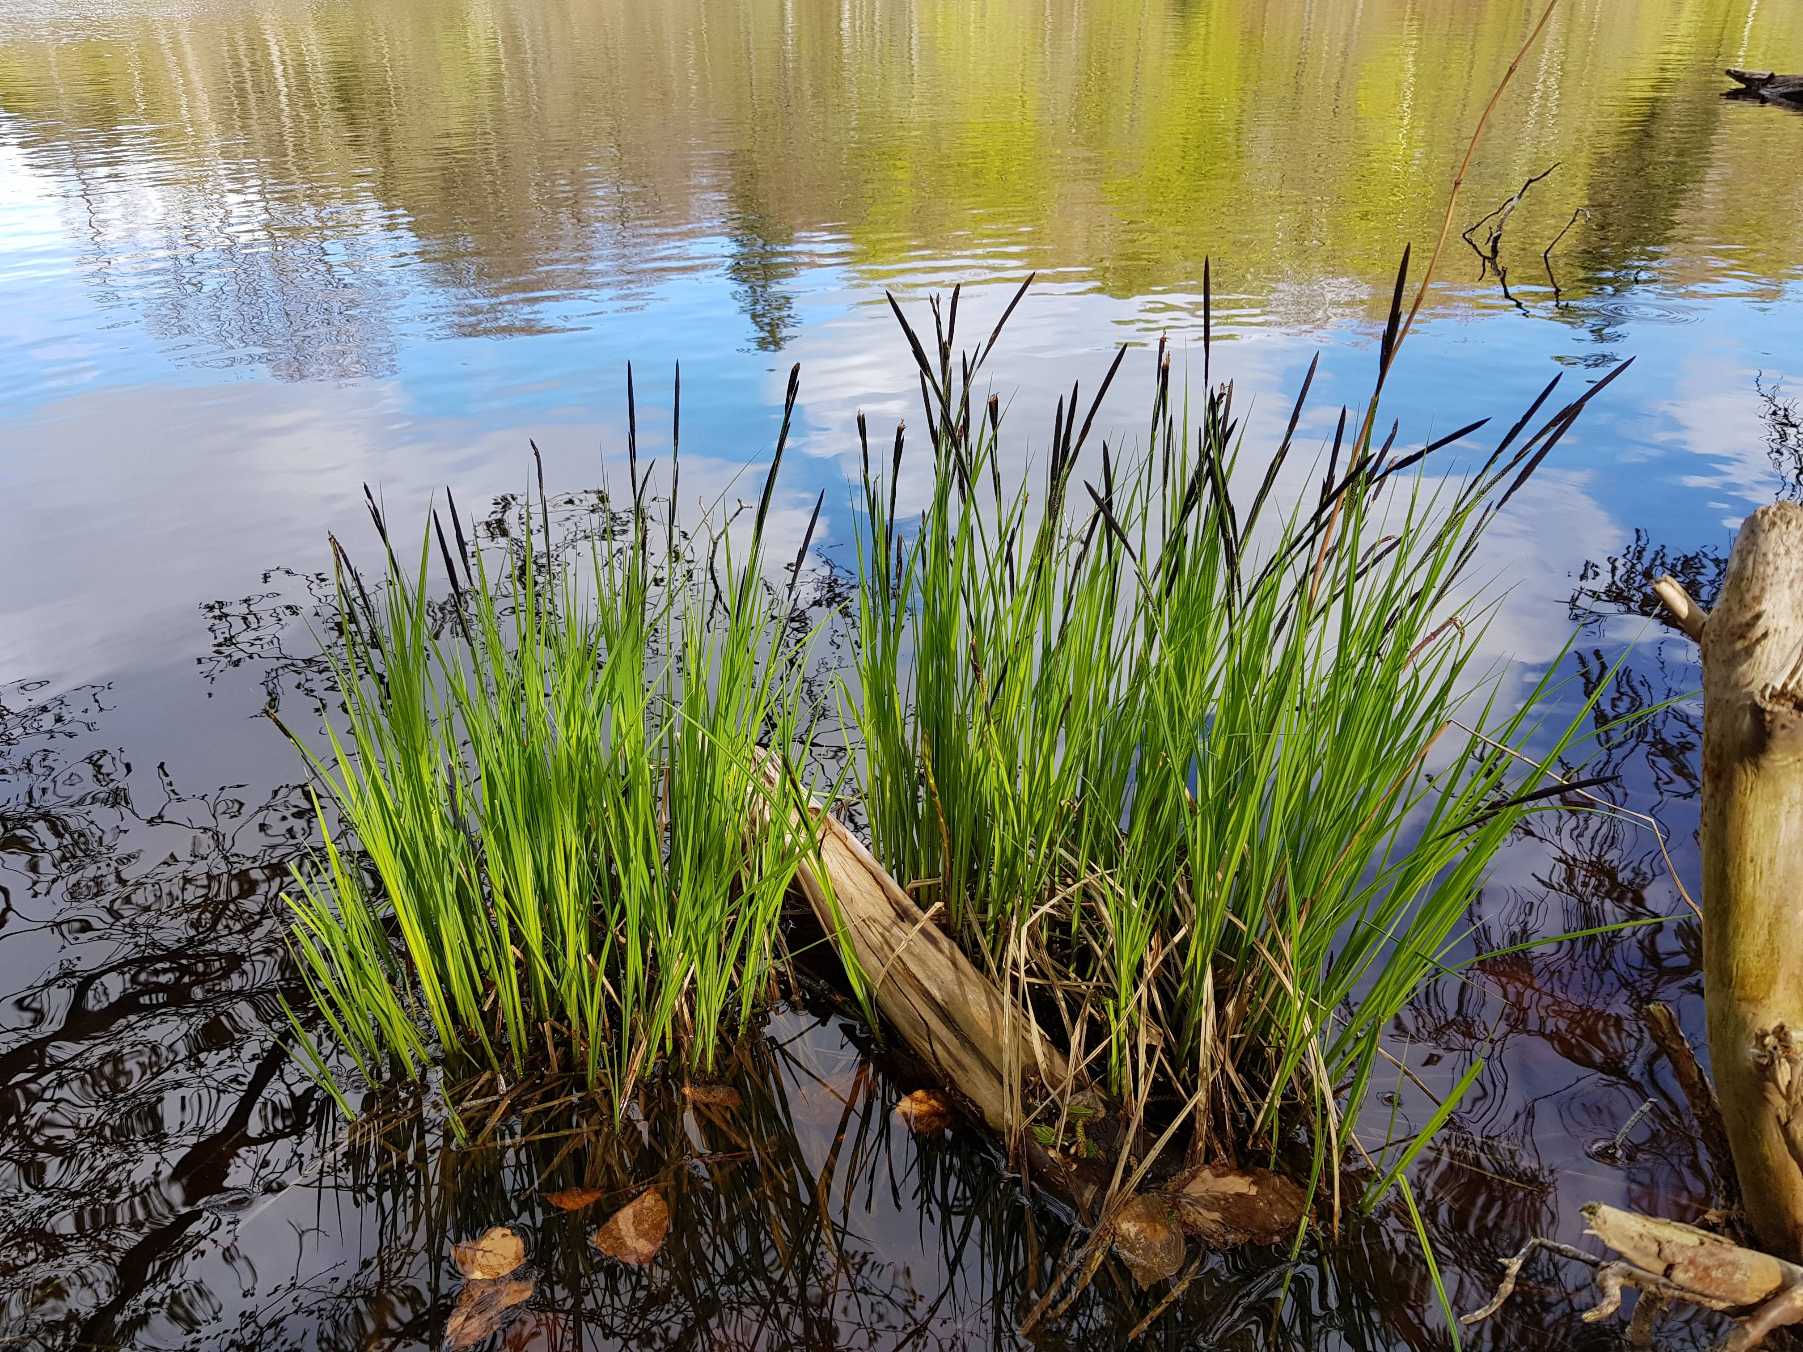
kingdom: Plantae
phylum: Tracheophyta
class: Liliopsida
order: Poales
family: Cyperaceae
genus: Carex
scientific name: Carex elata
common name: Stiv star
